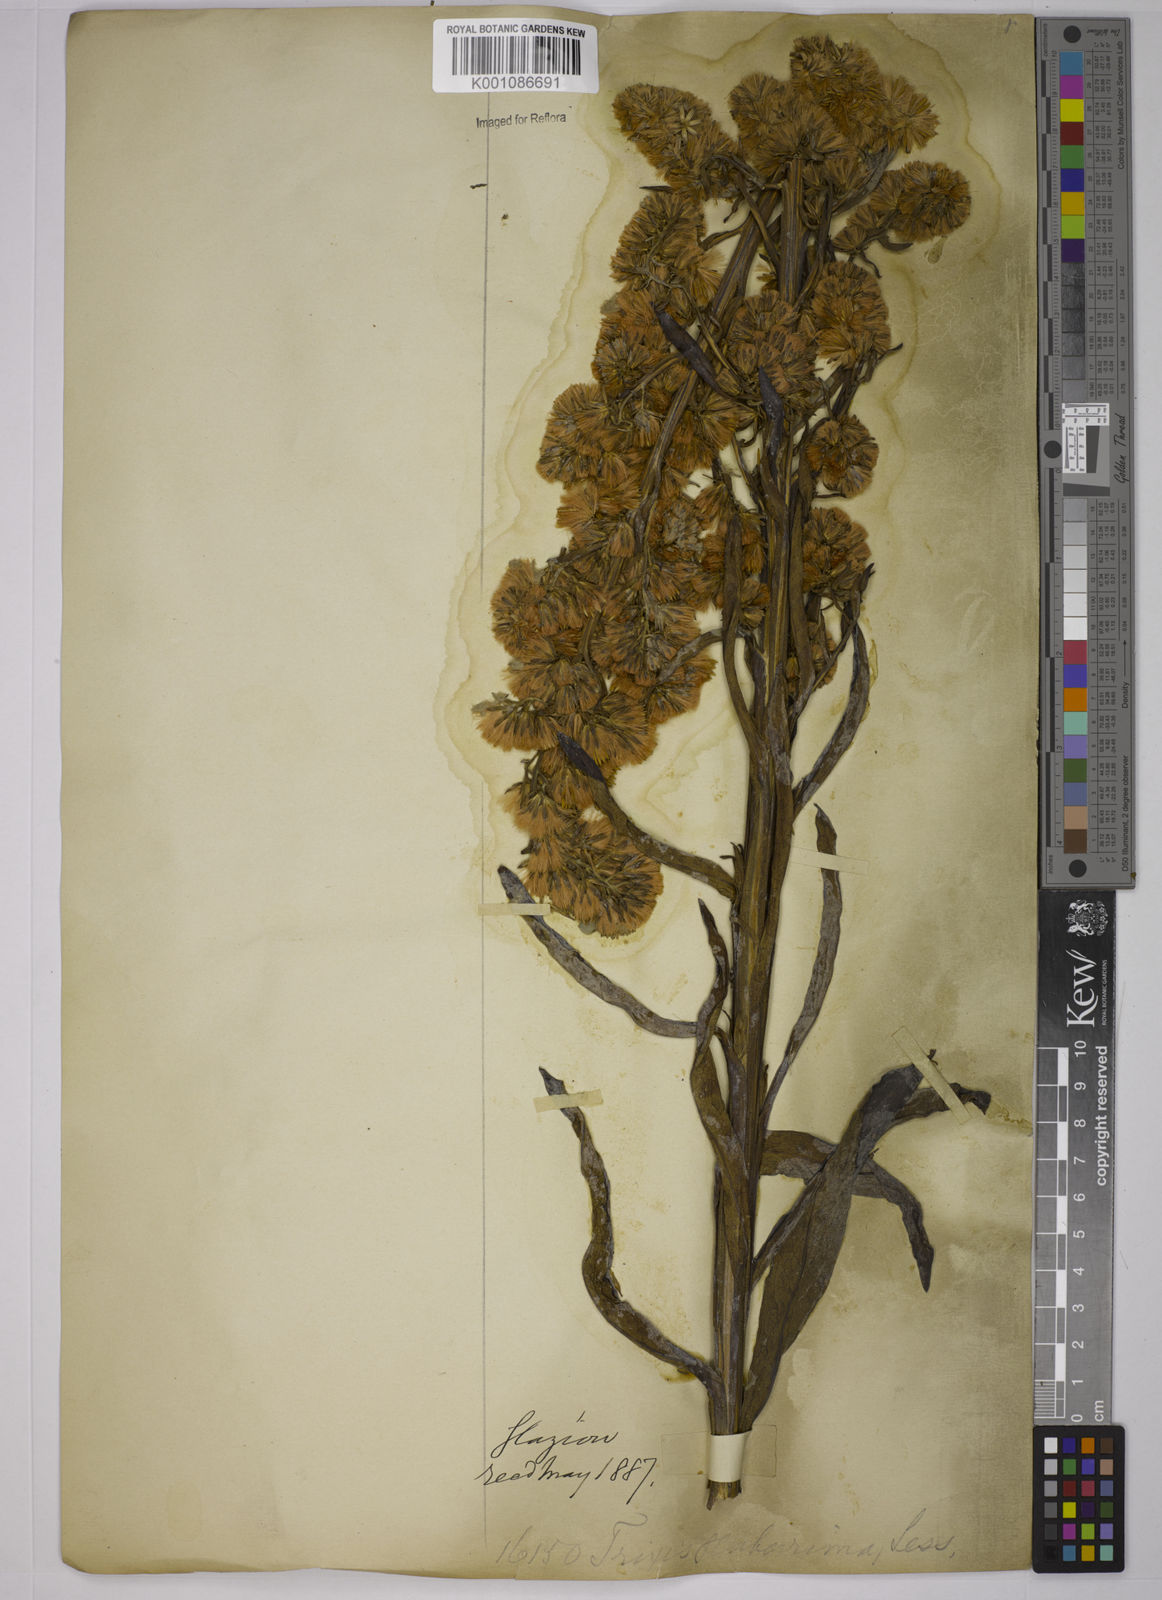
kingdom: Plantae
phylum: Tracheophyta
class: Magnoliopsida
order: Asterales
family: Asteraceae
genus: Trixis
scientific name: Trixis nobilis
